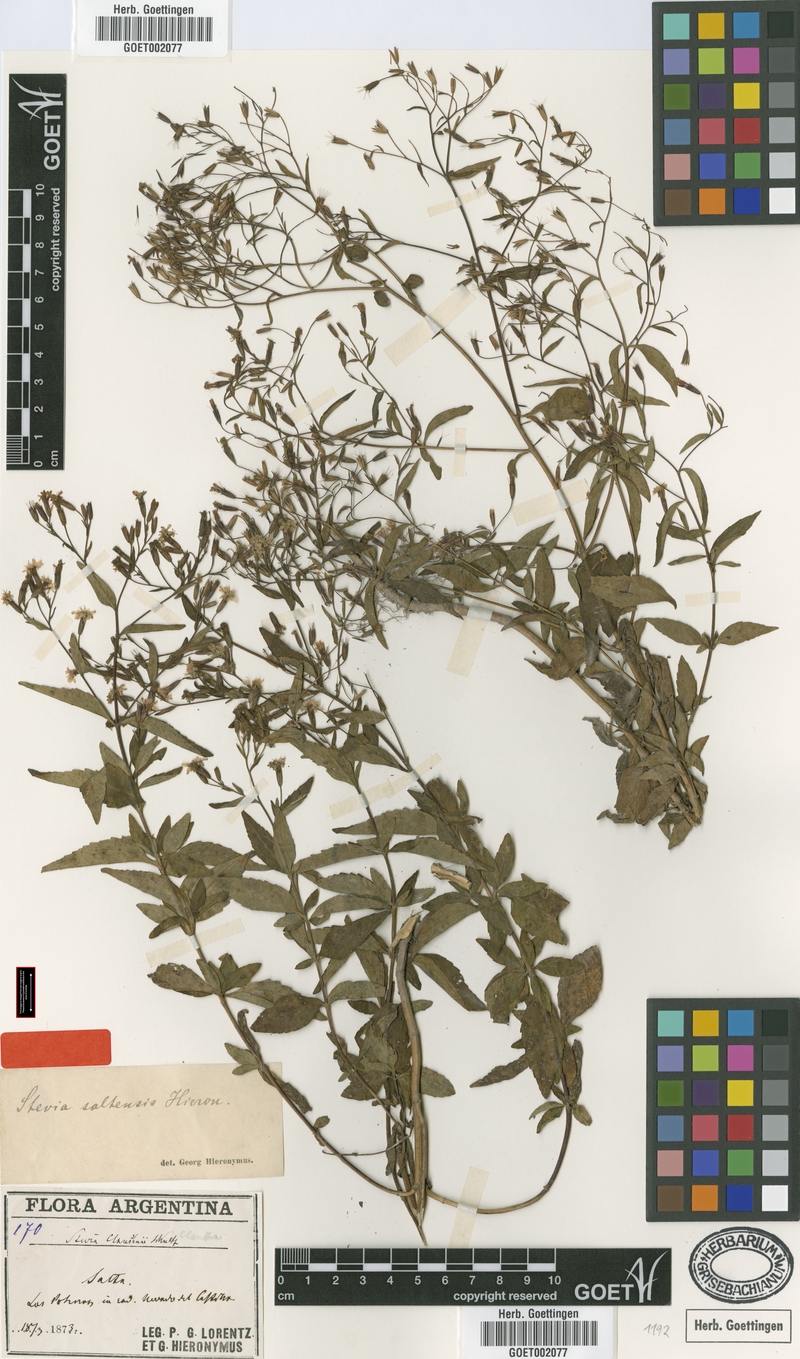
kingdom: Plantae
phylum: Tracheophyta
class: Magnoliopsida
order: Asterales
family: Asteraceae
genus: Stevia
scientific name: Stevia yaconensis
